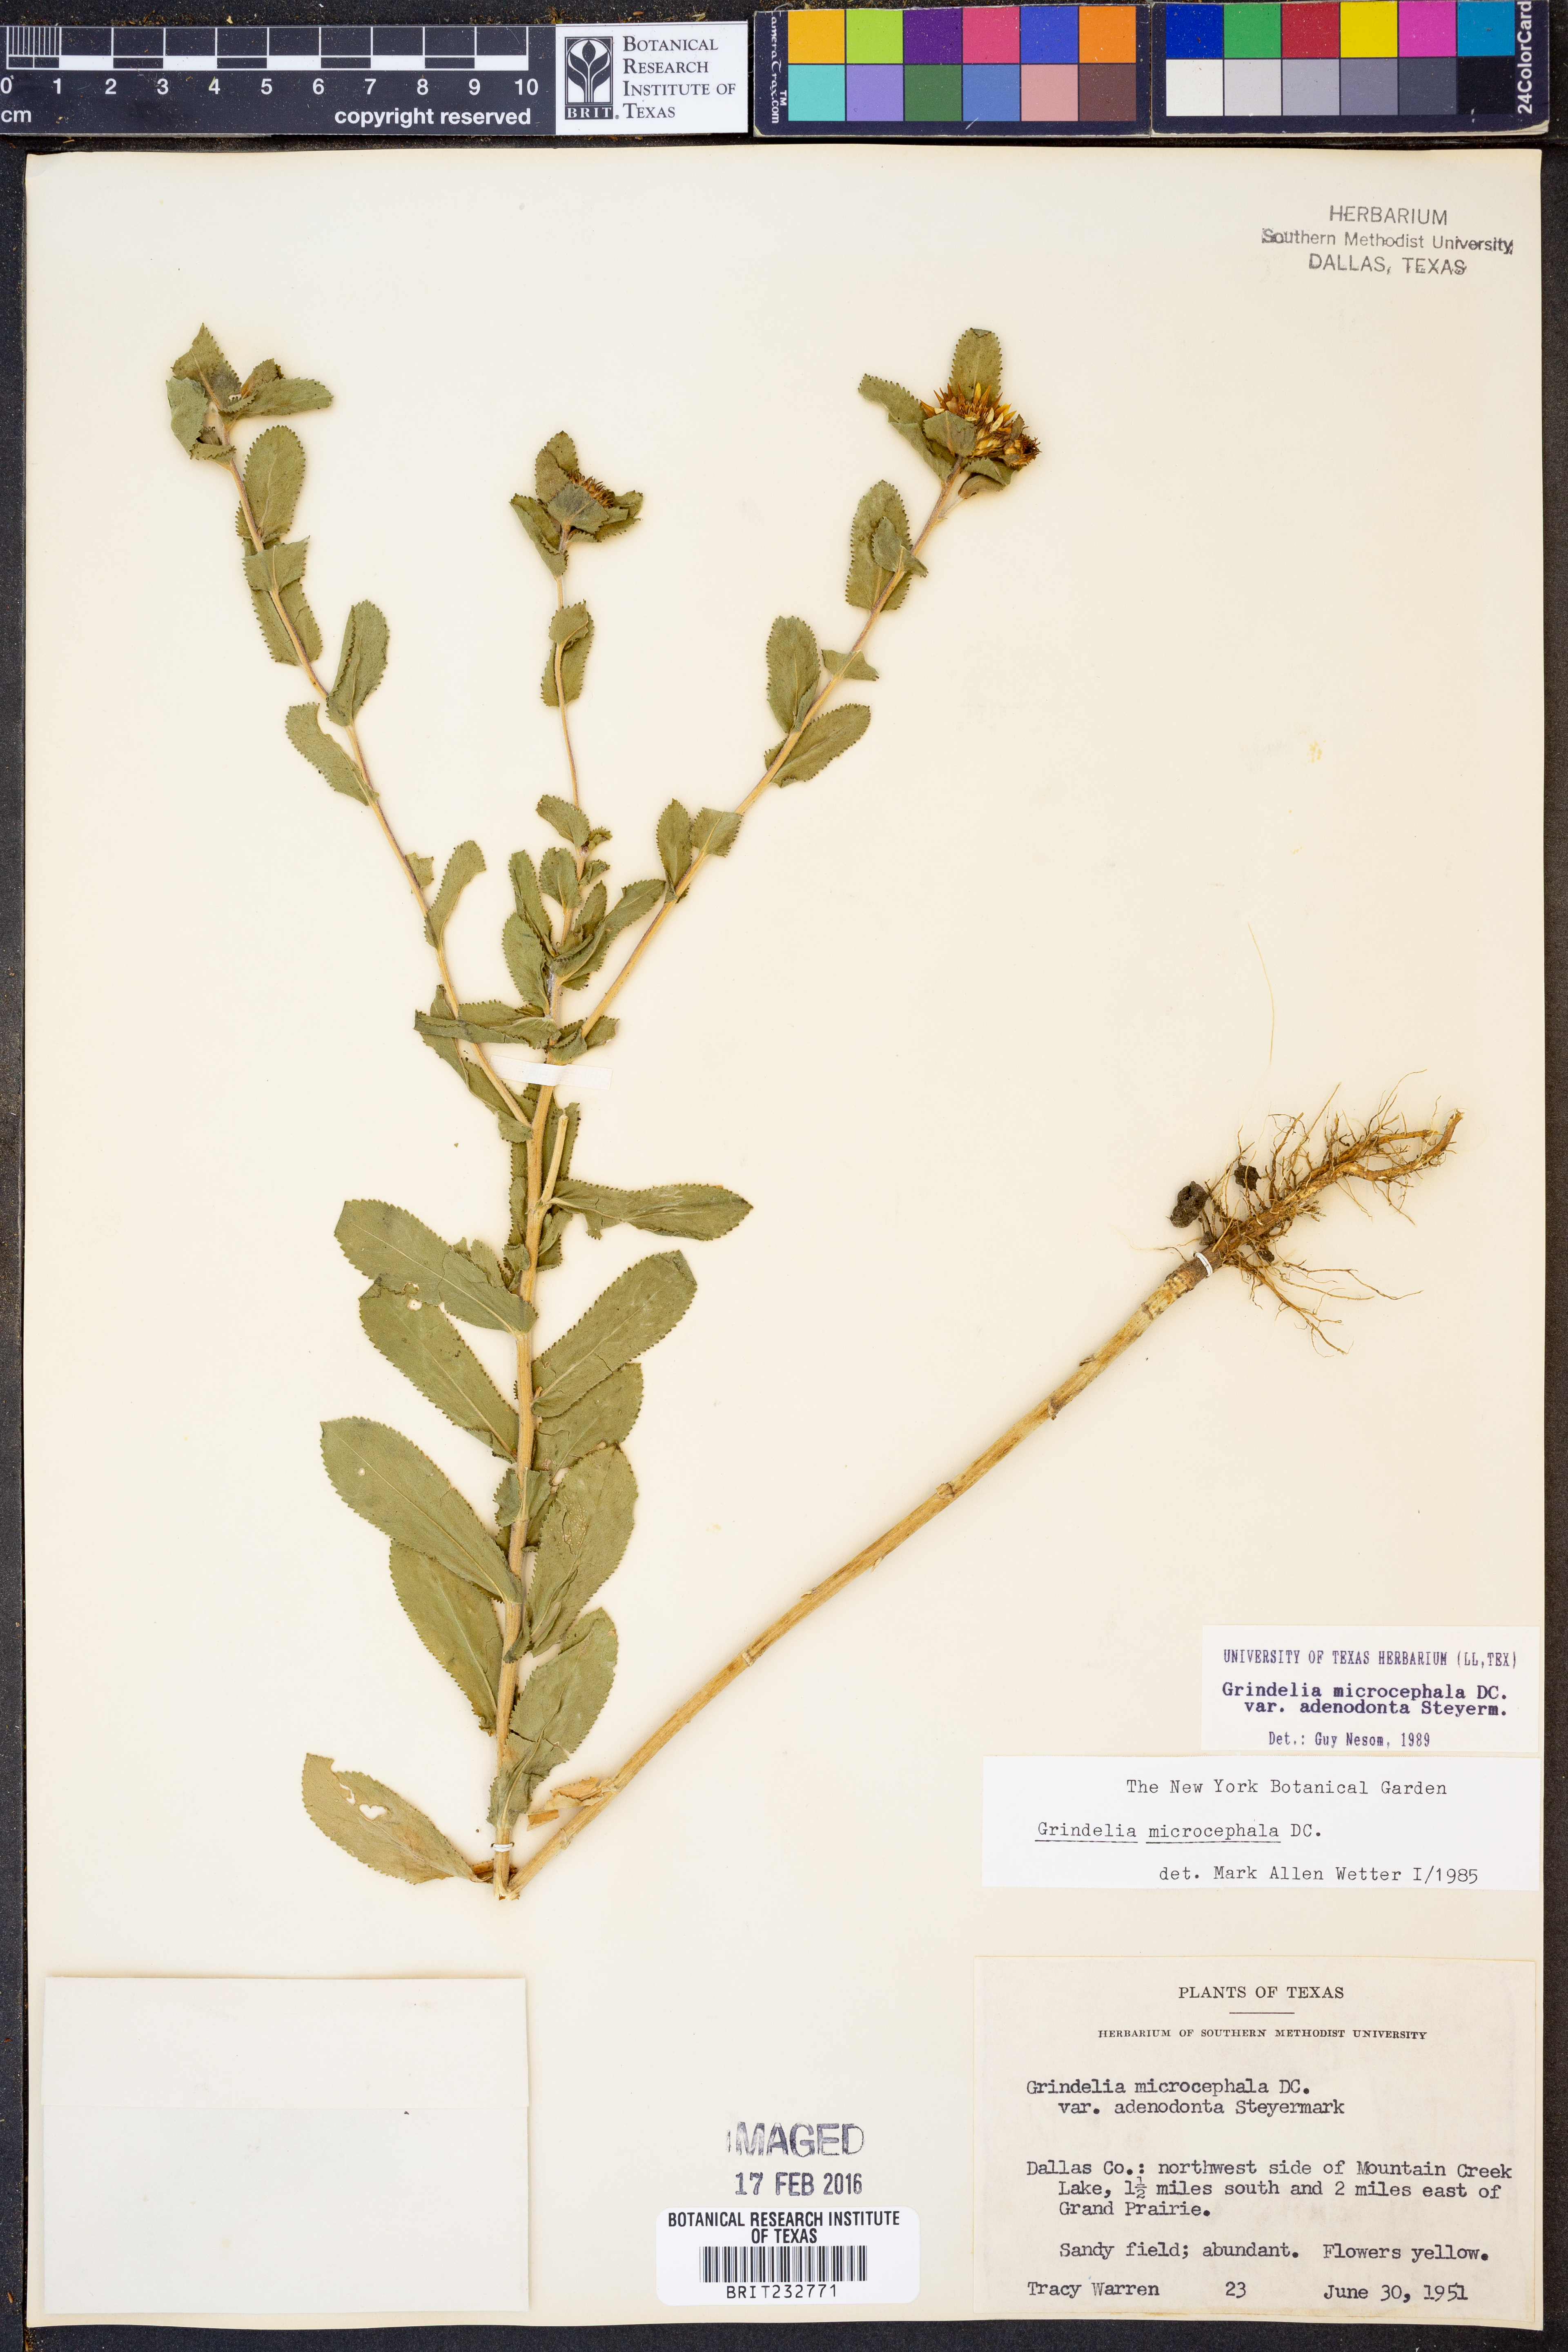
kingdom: Plantae
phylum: Tracheophyta
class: Magnoliopsida
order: Asterales
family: Asteraceae
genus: Grindelia
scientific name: Grindelia adenodonta
